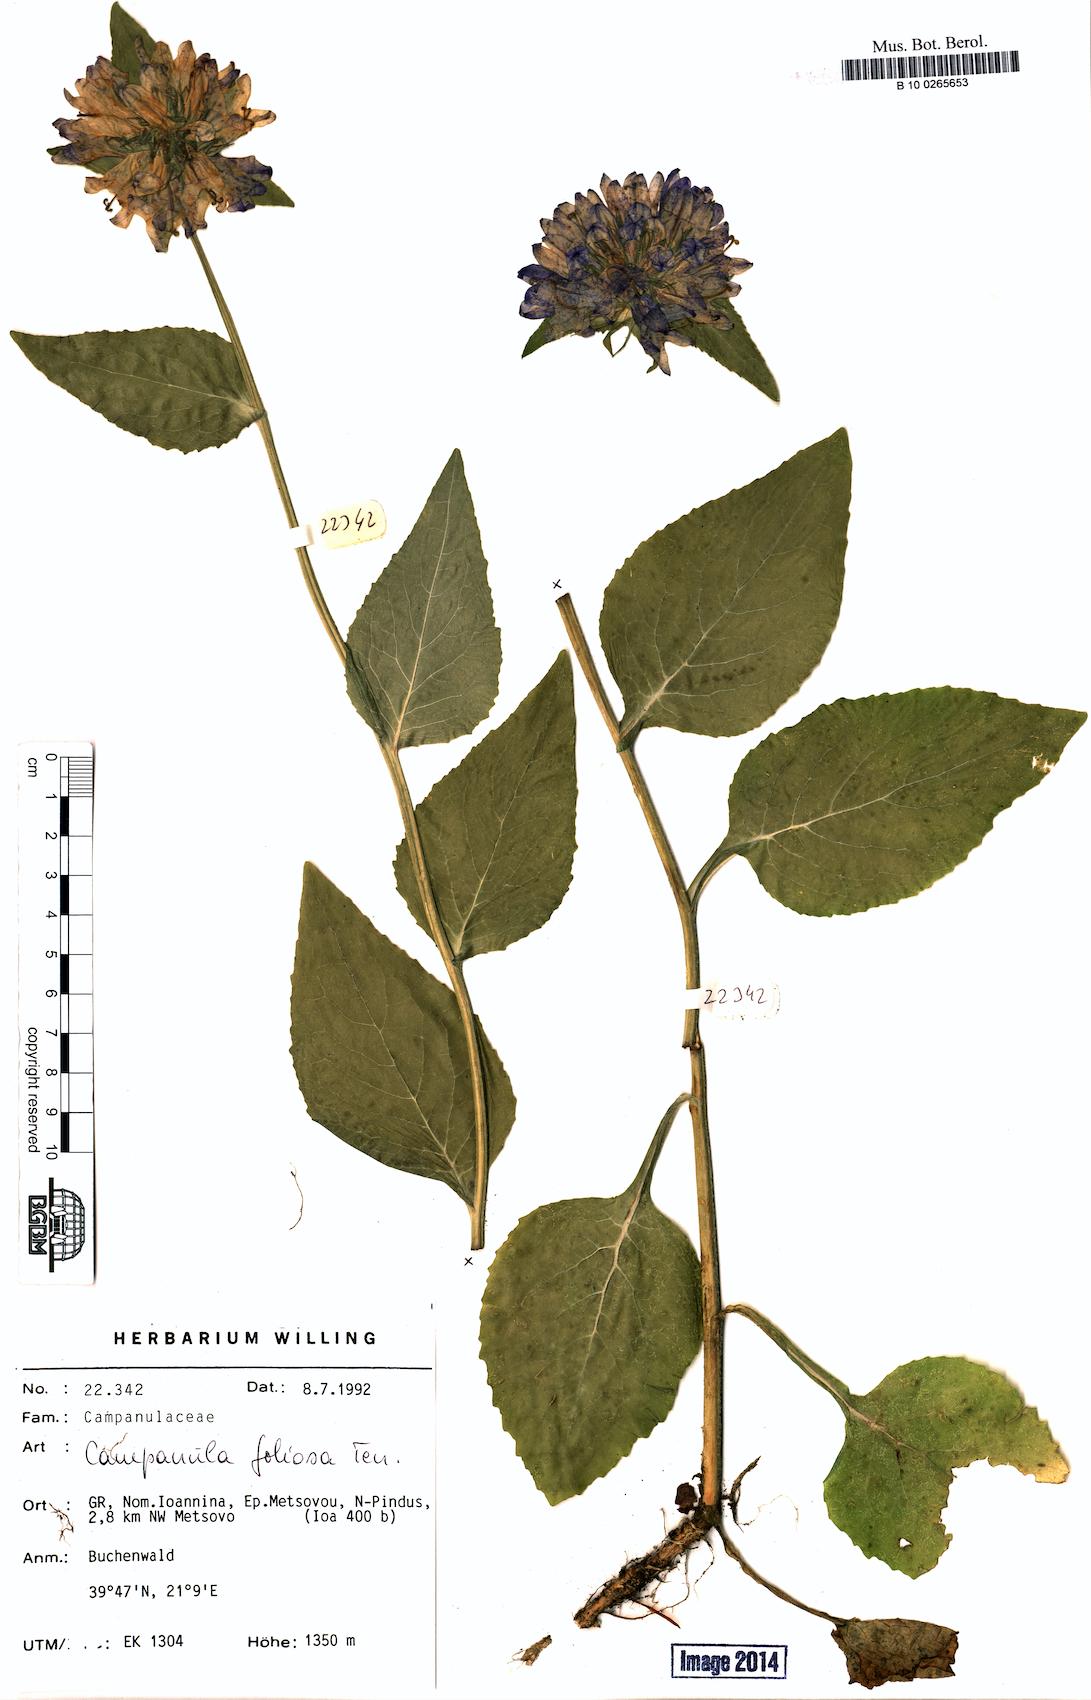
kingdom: Plantae
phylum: Tracheophyta
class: Magnoliopsida
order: Asterales
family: Campanulaceae
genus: Campanula
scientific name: Campanula foliosa
